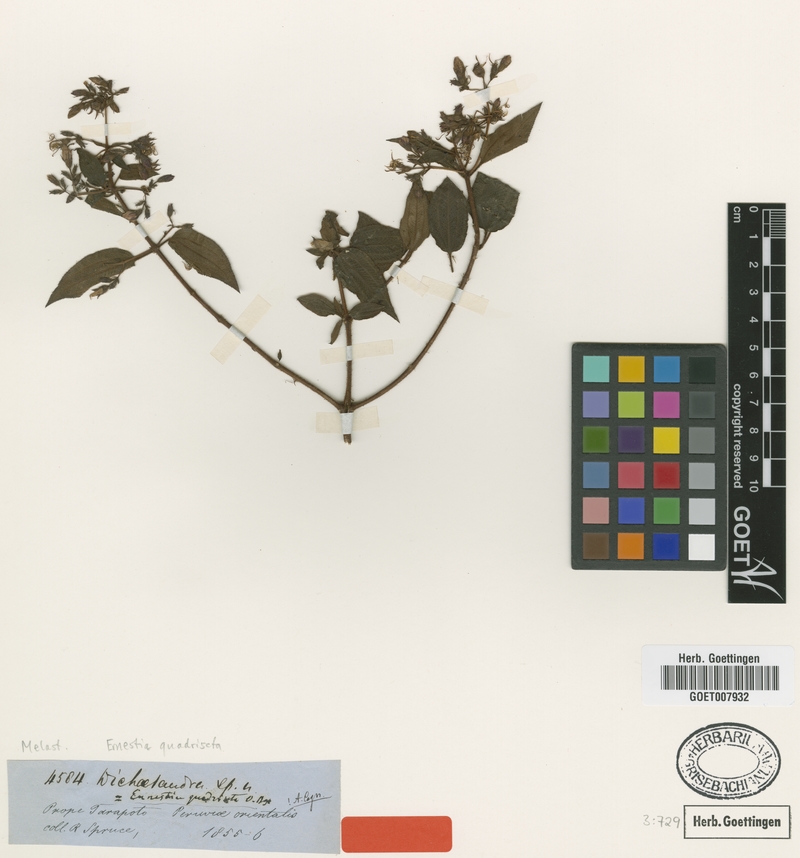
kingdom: Plantae
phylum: Tracheophyta
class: Magnoliopsida
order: Myrtales
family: Melastomataceae
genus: Ernestia
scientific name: Ernestia quadriseta
